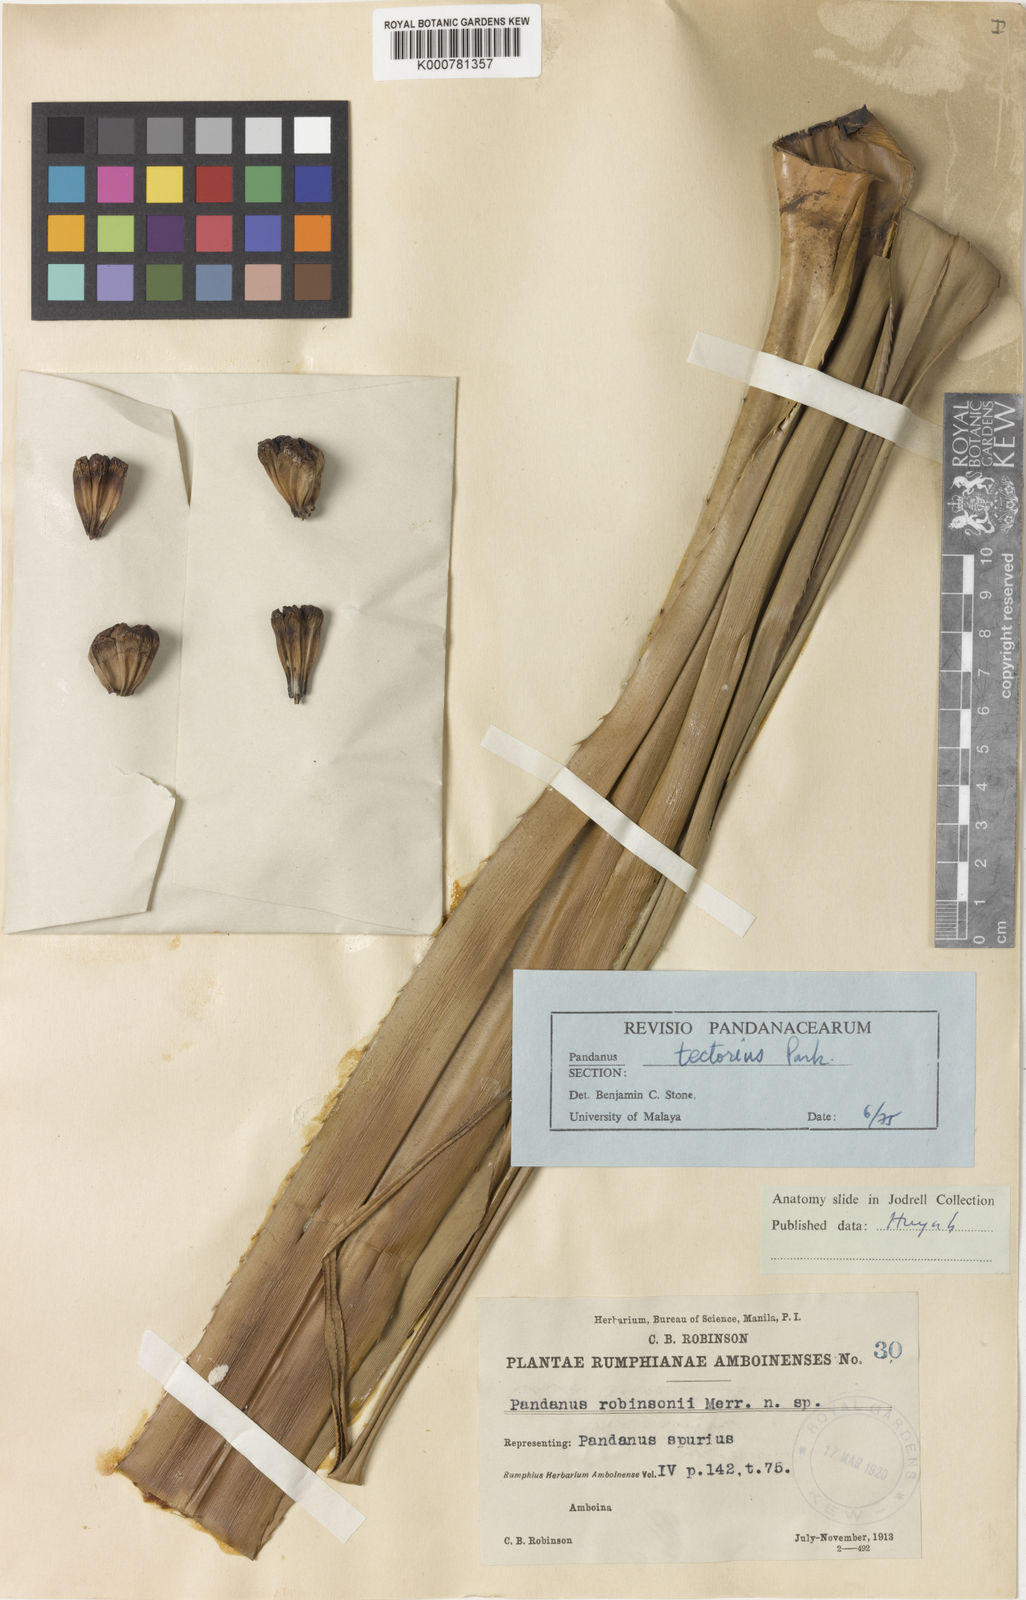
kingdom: Plantae
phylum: Tracheophyta
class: Liliopsida
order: Pandanales
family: Pandanaceae
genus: Pandanus
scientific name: Pandanus tectorius
